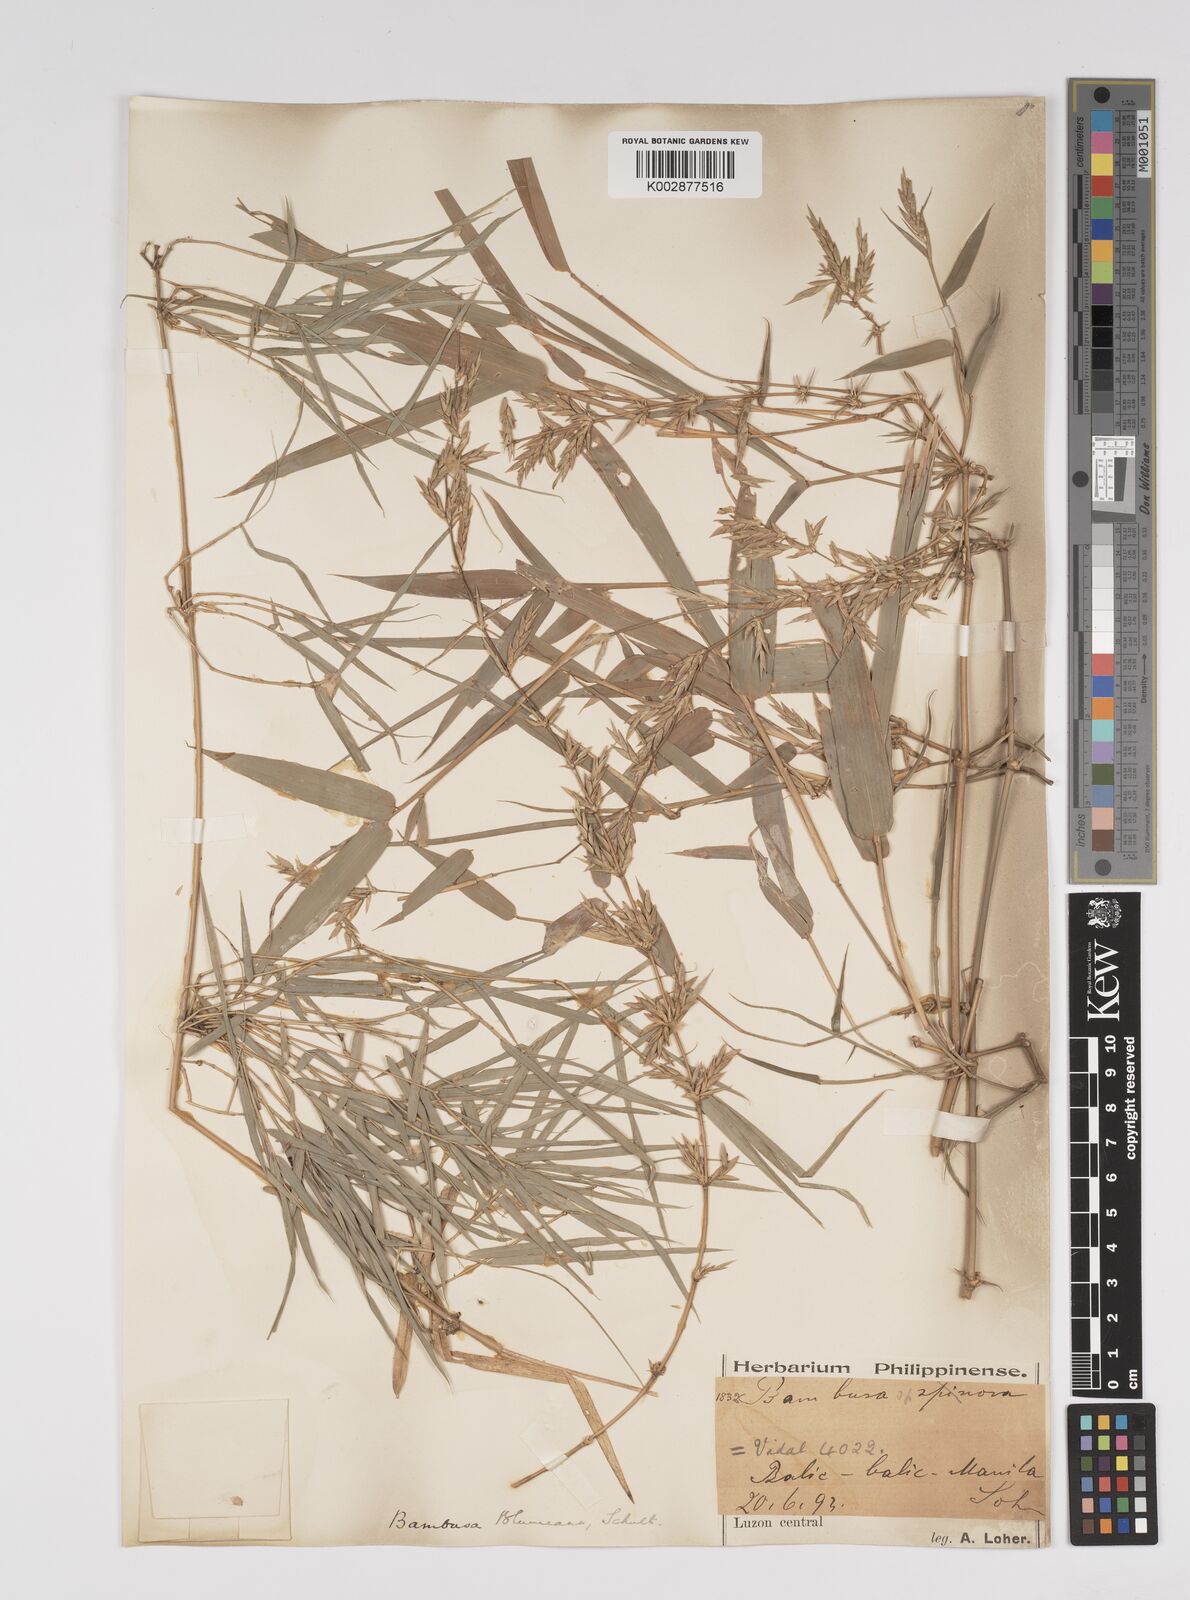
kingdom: Plantae
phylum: Tracheophyta
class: Liliopsida
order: Poales
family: Poaceae
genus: Bambusa
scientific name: Bambusa spinosa
